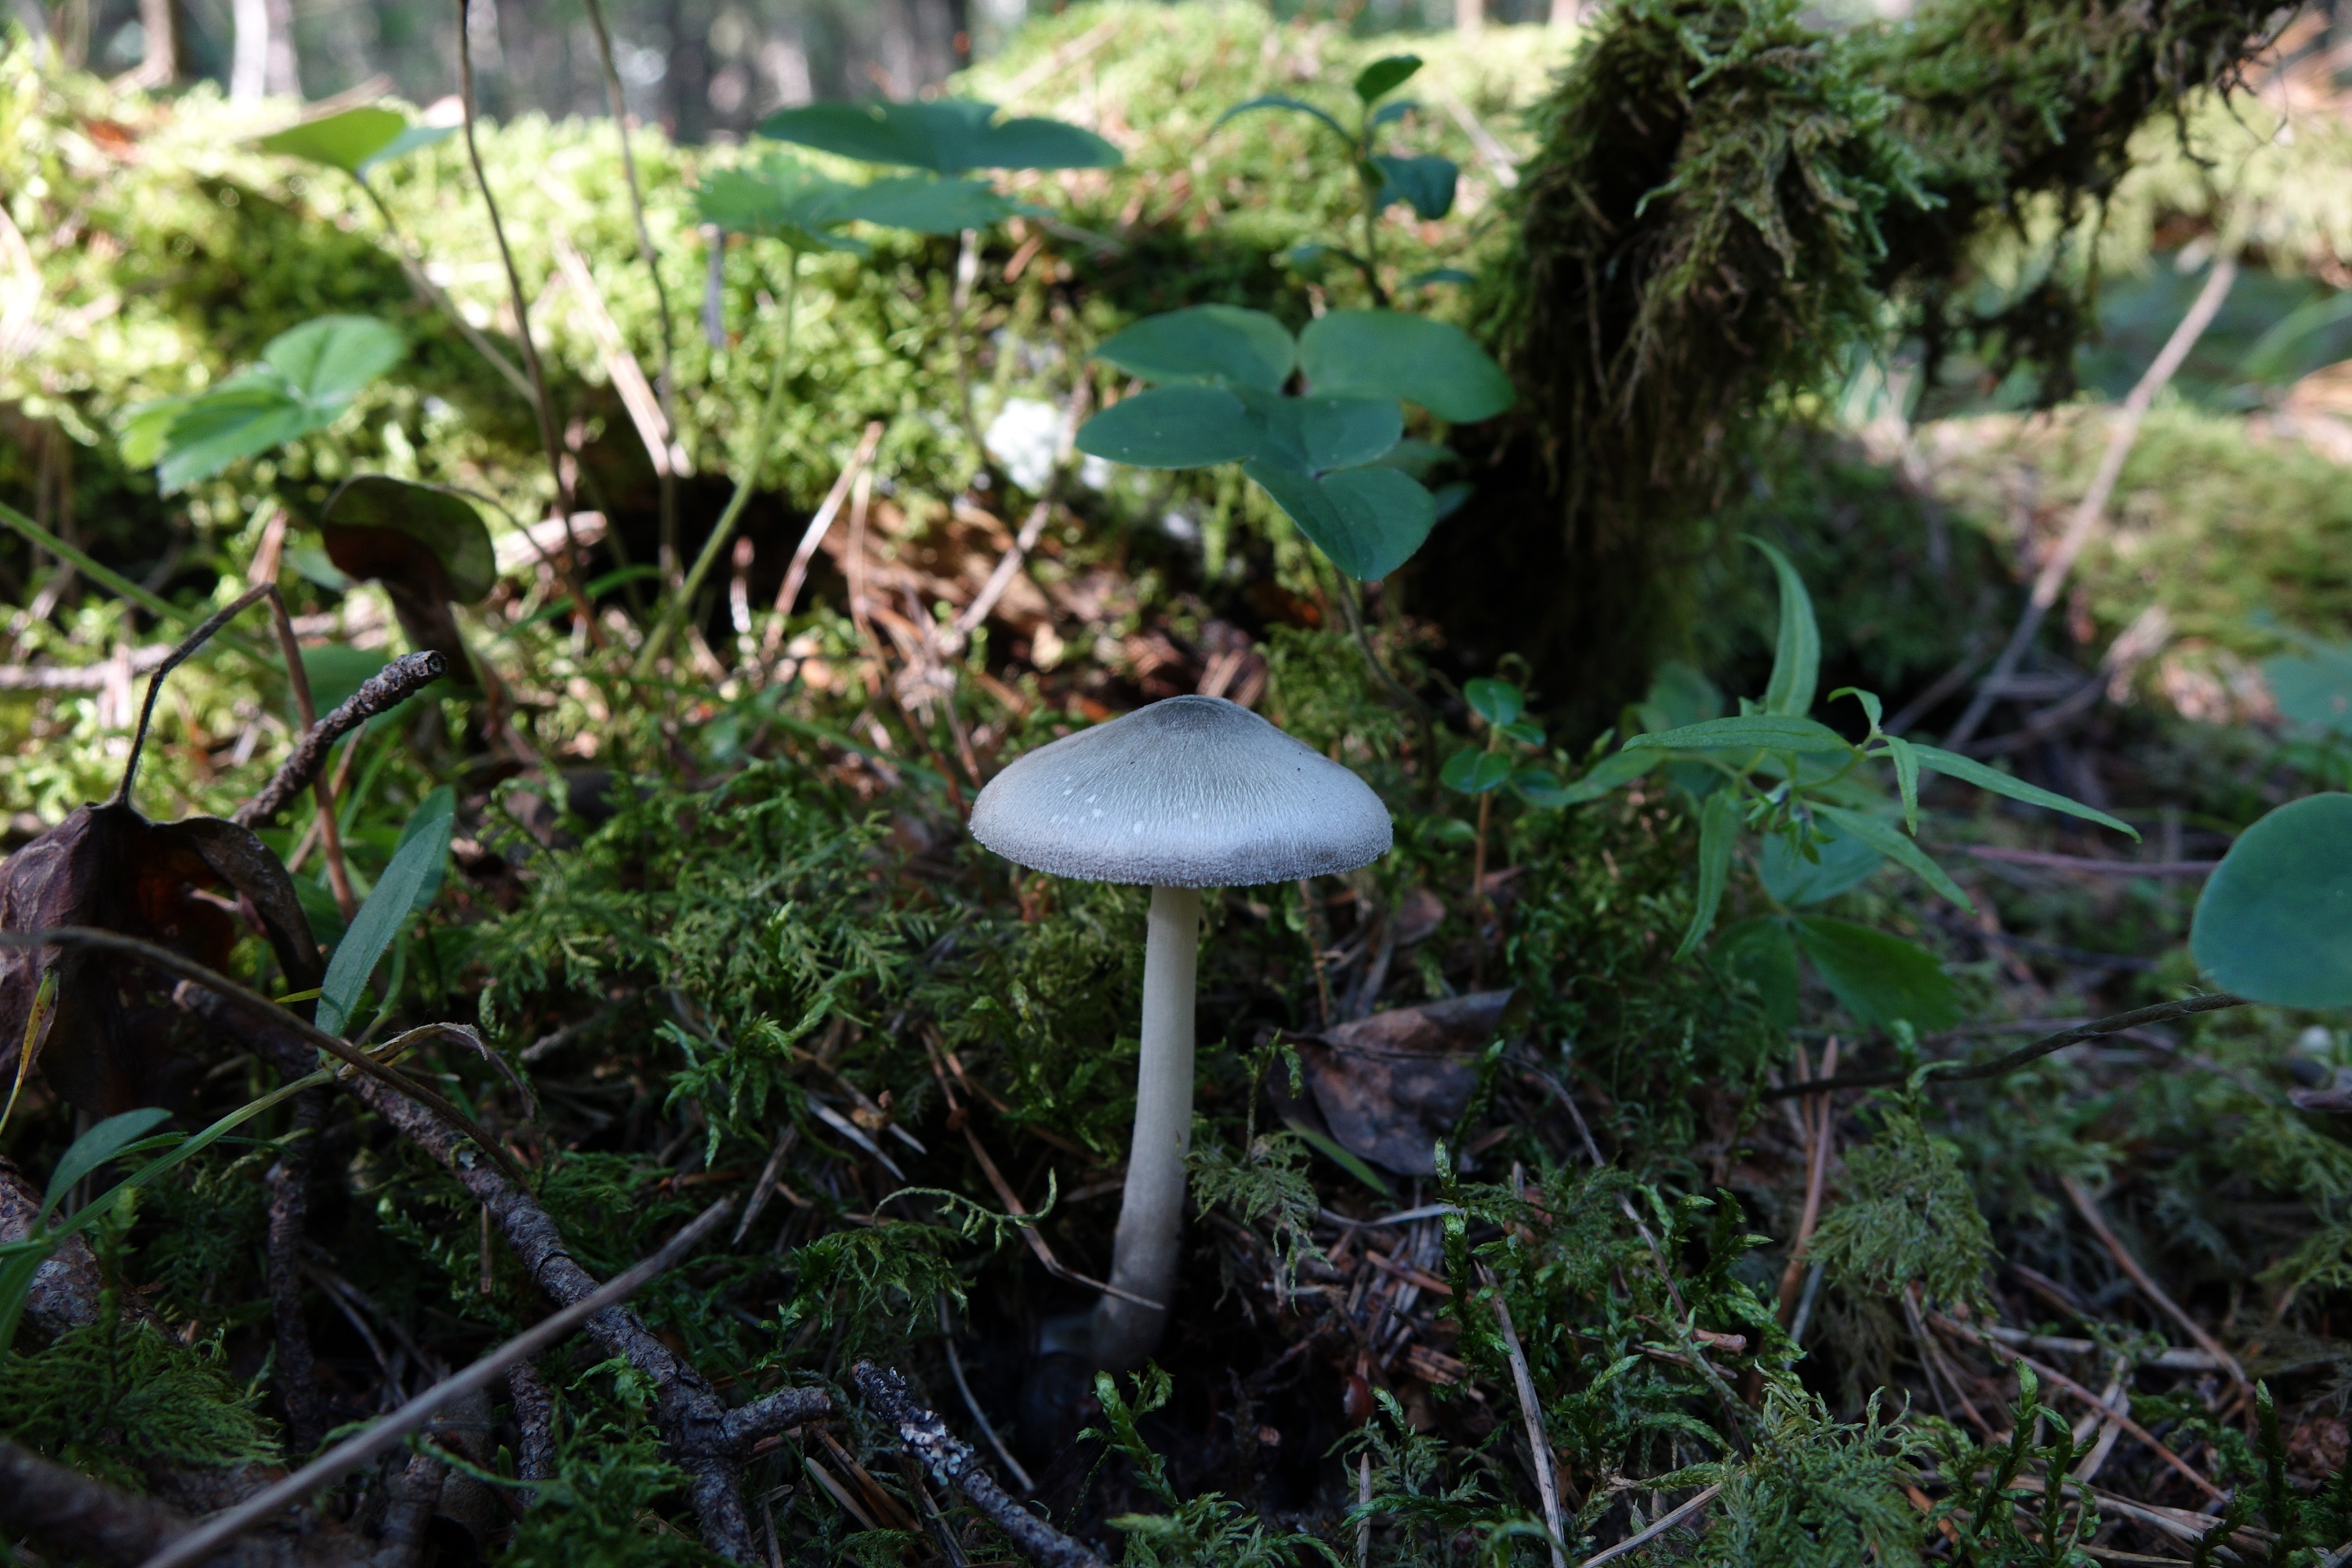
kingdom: Fungi
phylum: Basidiomycota
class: Agaricomycetes
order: Agaricales
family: Pluteaceae
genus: Volvariella
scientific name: Volvariella caesiotincta
